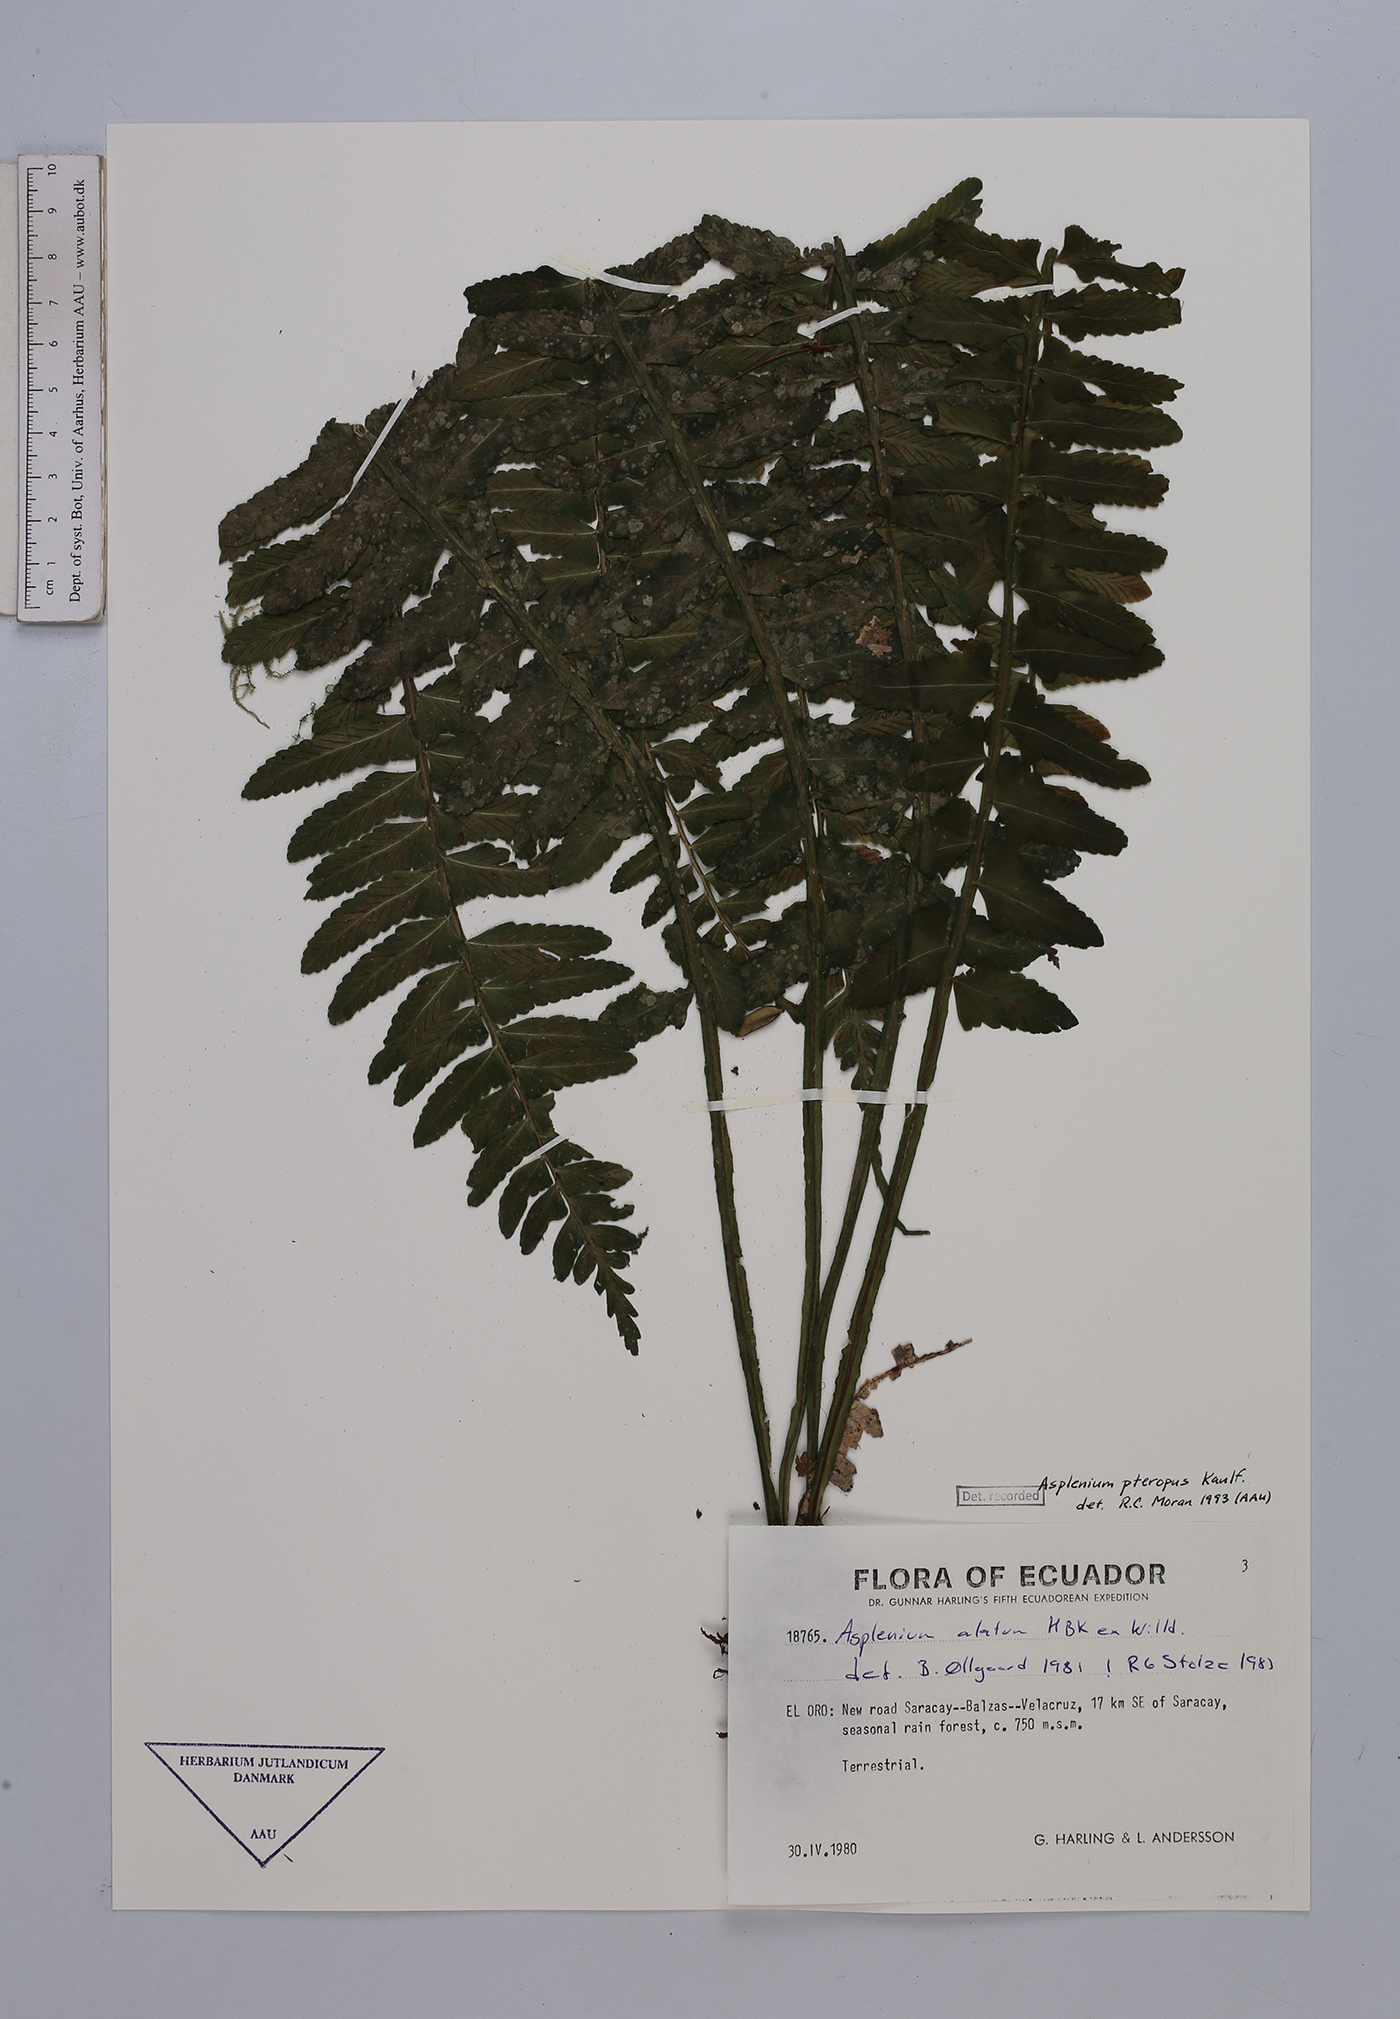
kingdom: Plantae
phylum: Tracheophyta
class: Polypodiopsida
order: Polypodiales
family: Aspleniaceae
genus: Asplenium
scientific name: Asplenium pteropus
